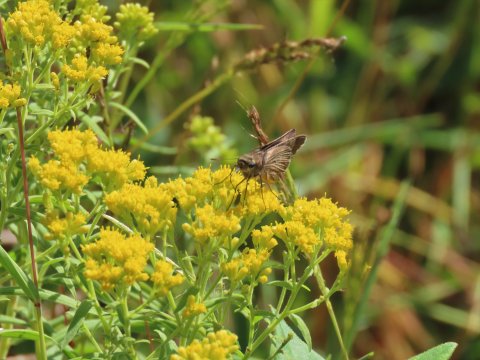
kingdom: Animalia
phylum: Arthropoda
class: Insecta
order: Lepidoptera
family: Hesperiidae
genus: Panoquina
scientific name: Panoquina ocola
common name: Ocola Skipper
